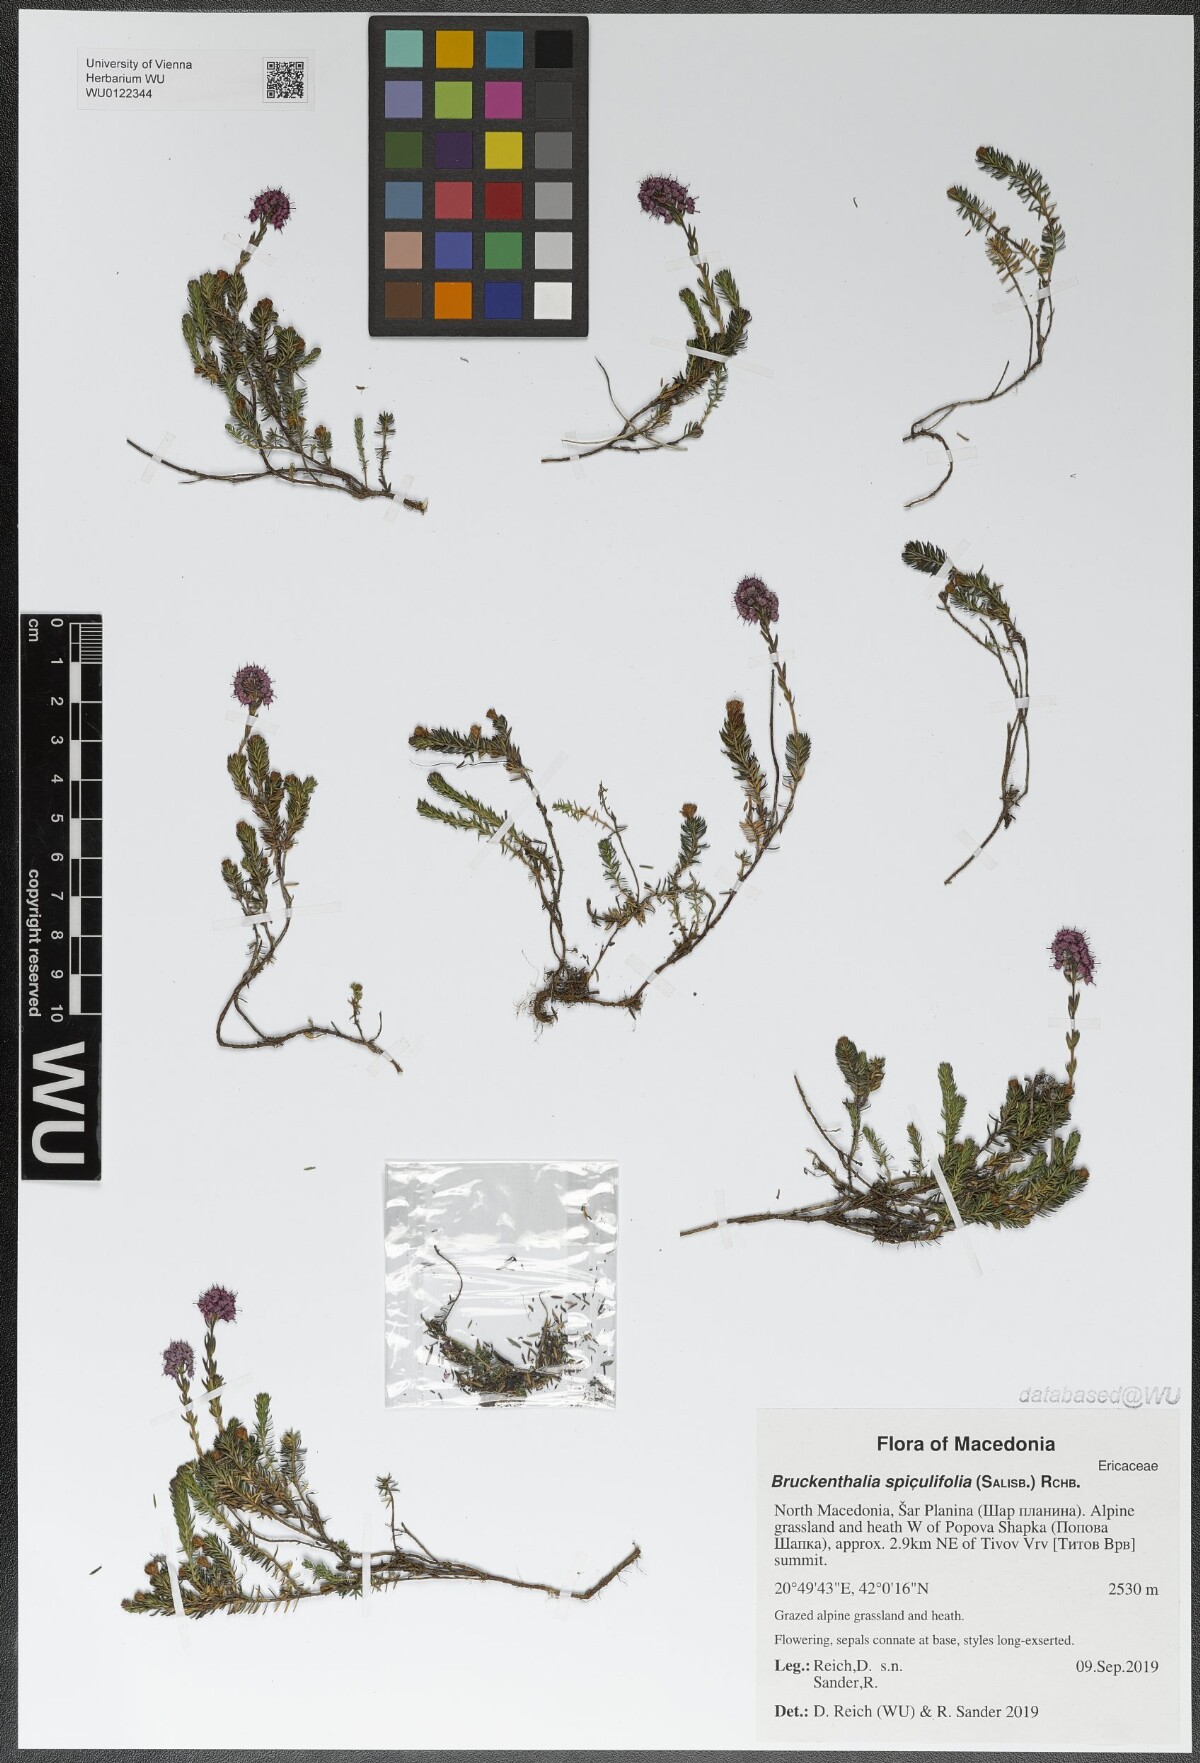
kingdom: Plantae
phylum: Tracheophyta
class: Magnoliopsida
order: Ericales
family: Ericaceae
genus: Erica
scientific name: Erica spiculifolia
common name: Spike heath
